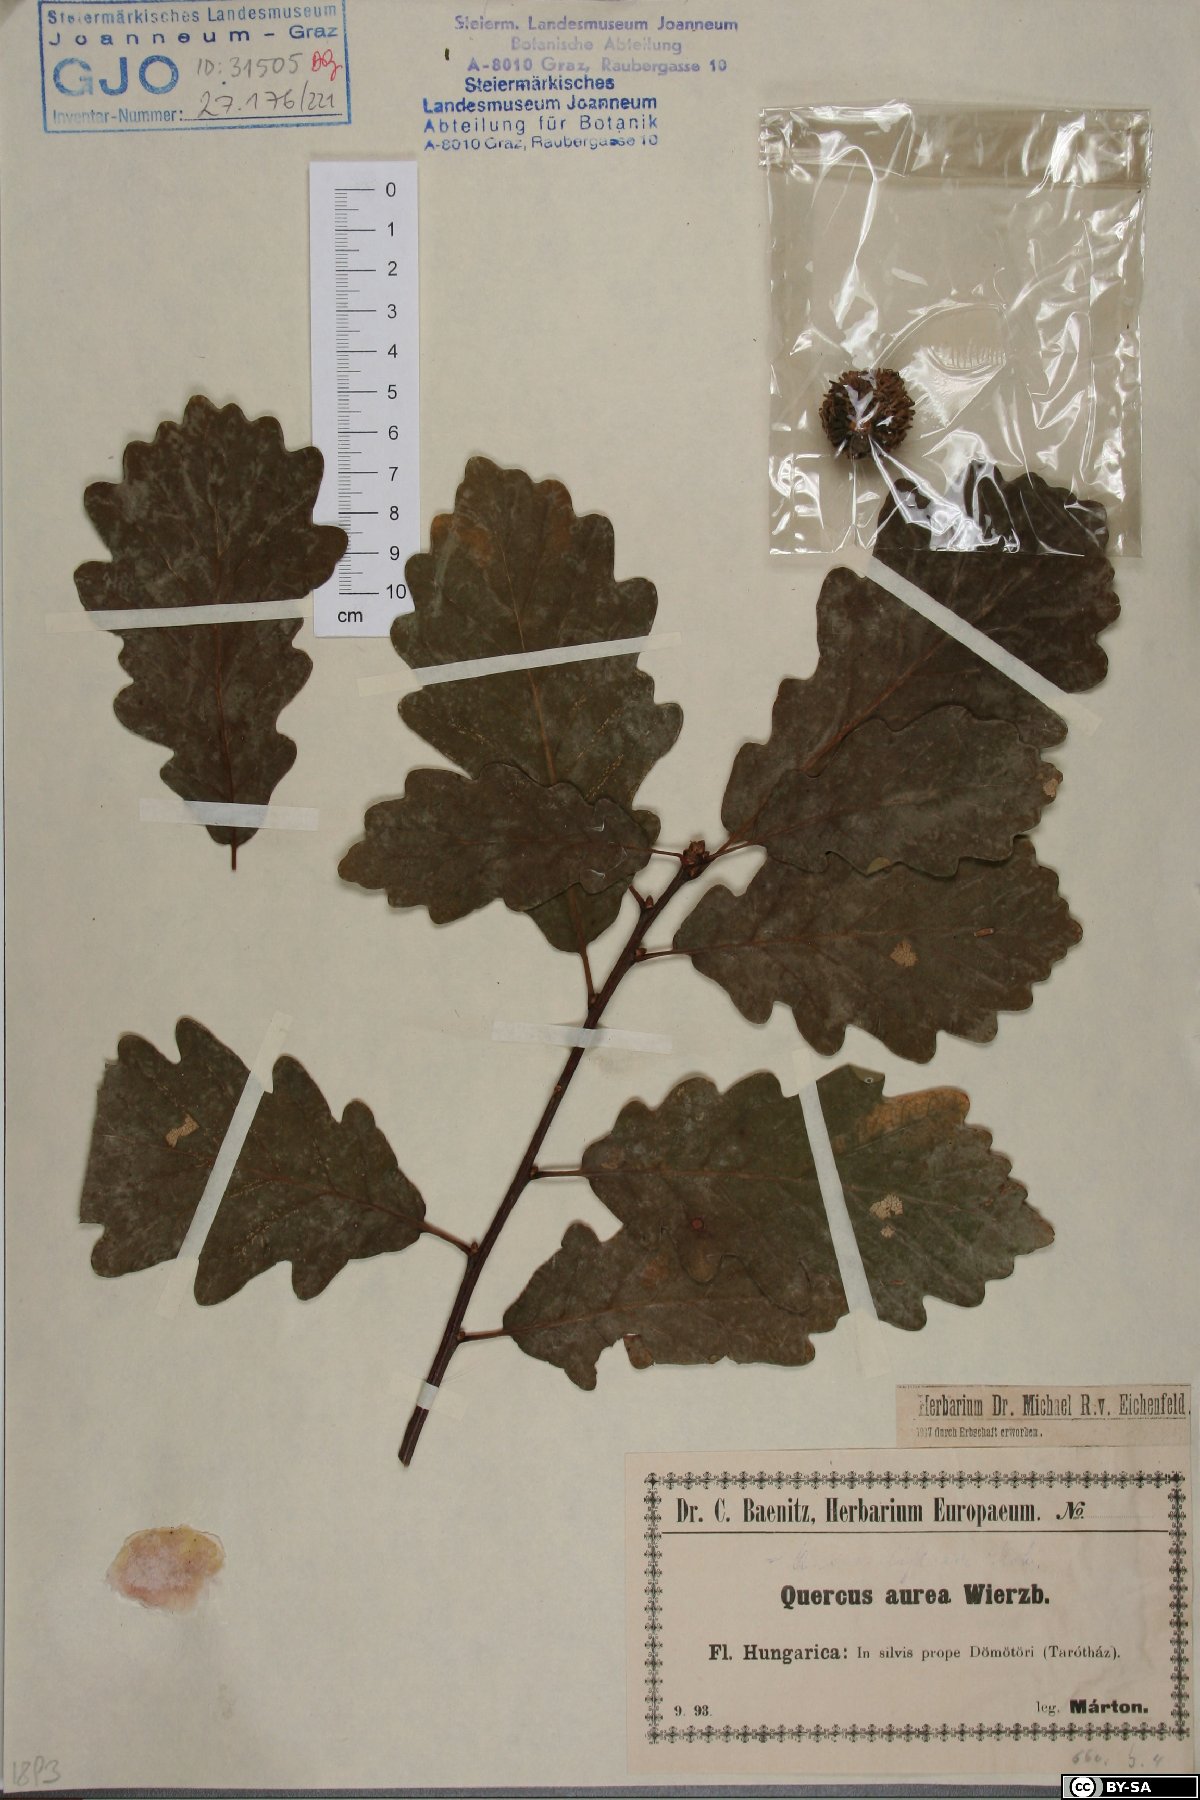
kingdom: Plantae
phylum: Tracheophyta
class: Magnoliopsida
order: Fagales
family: Fagaceae
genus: Quercus
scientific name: Quercus dalechampii
